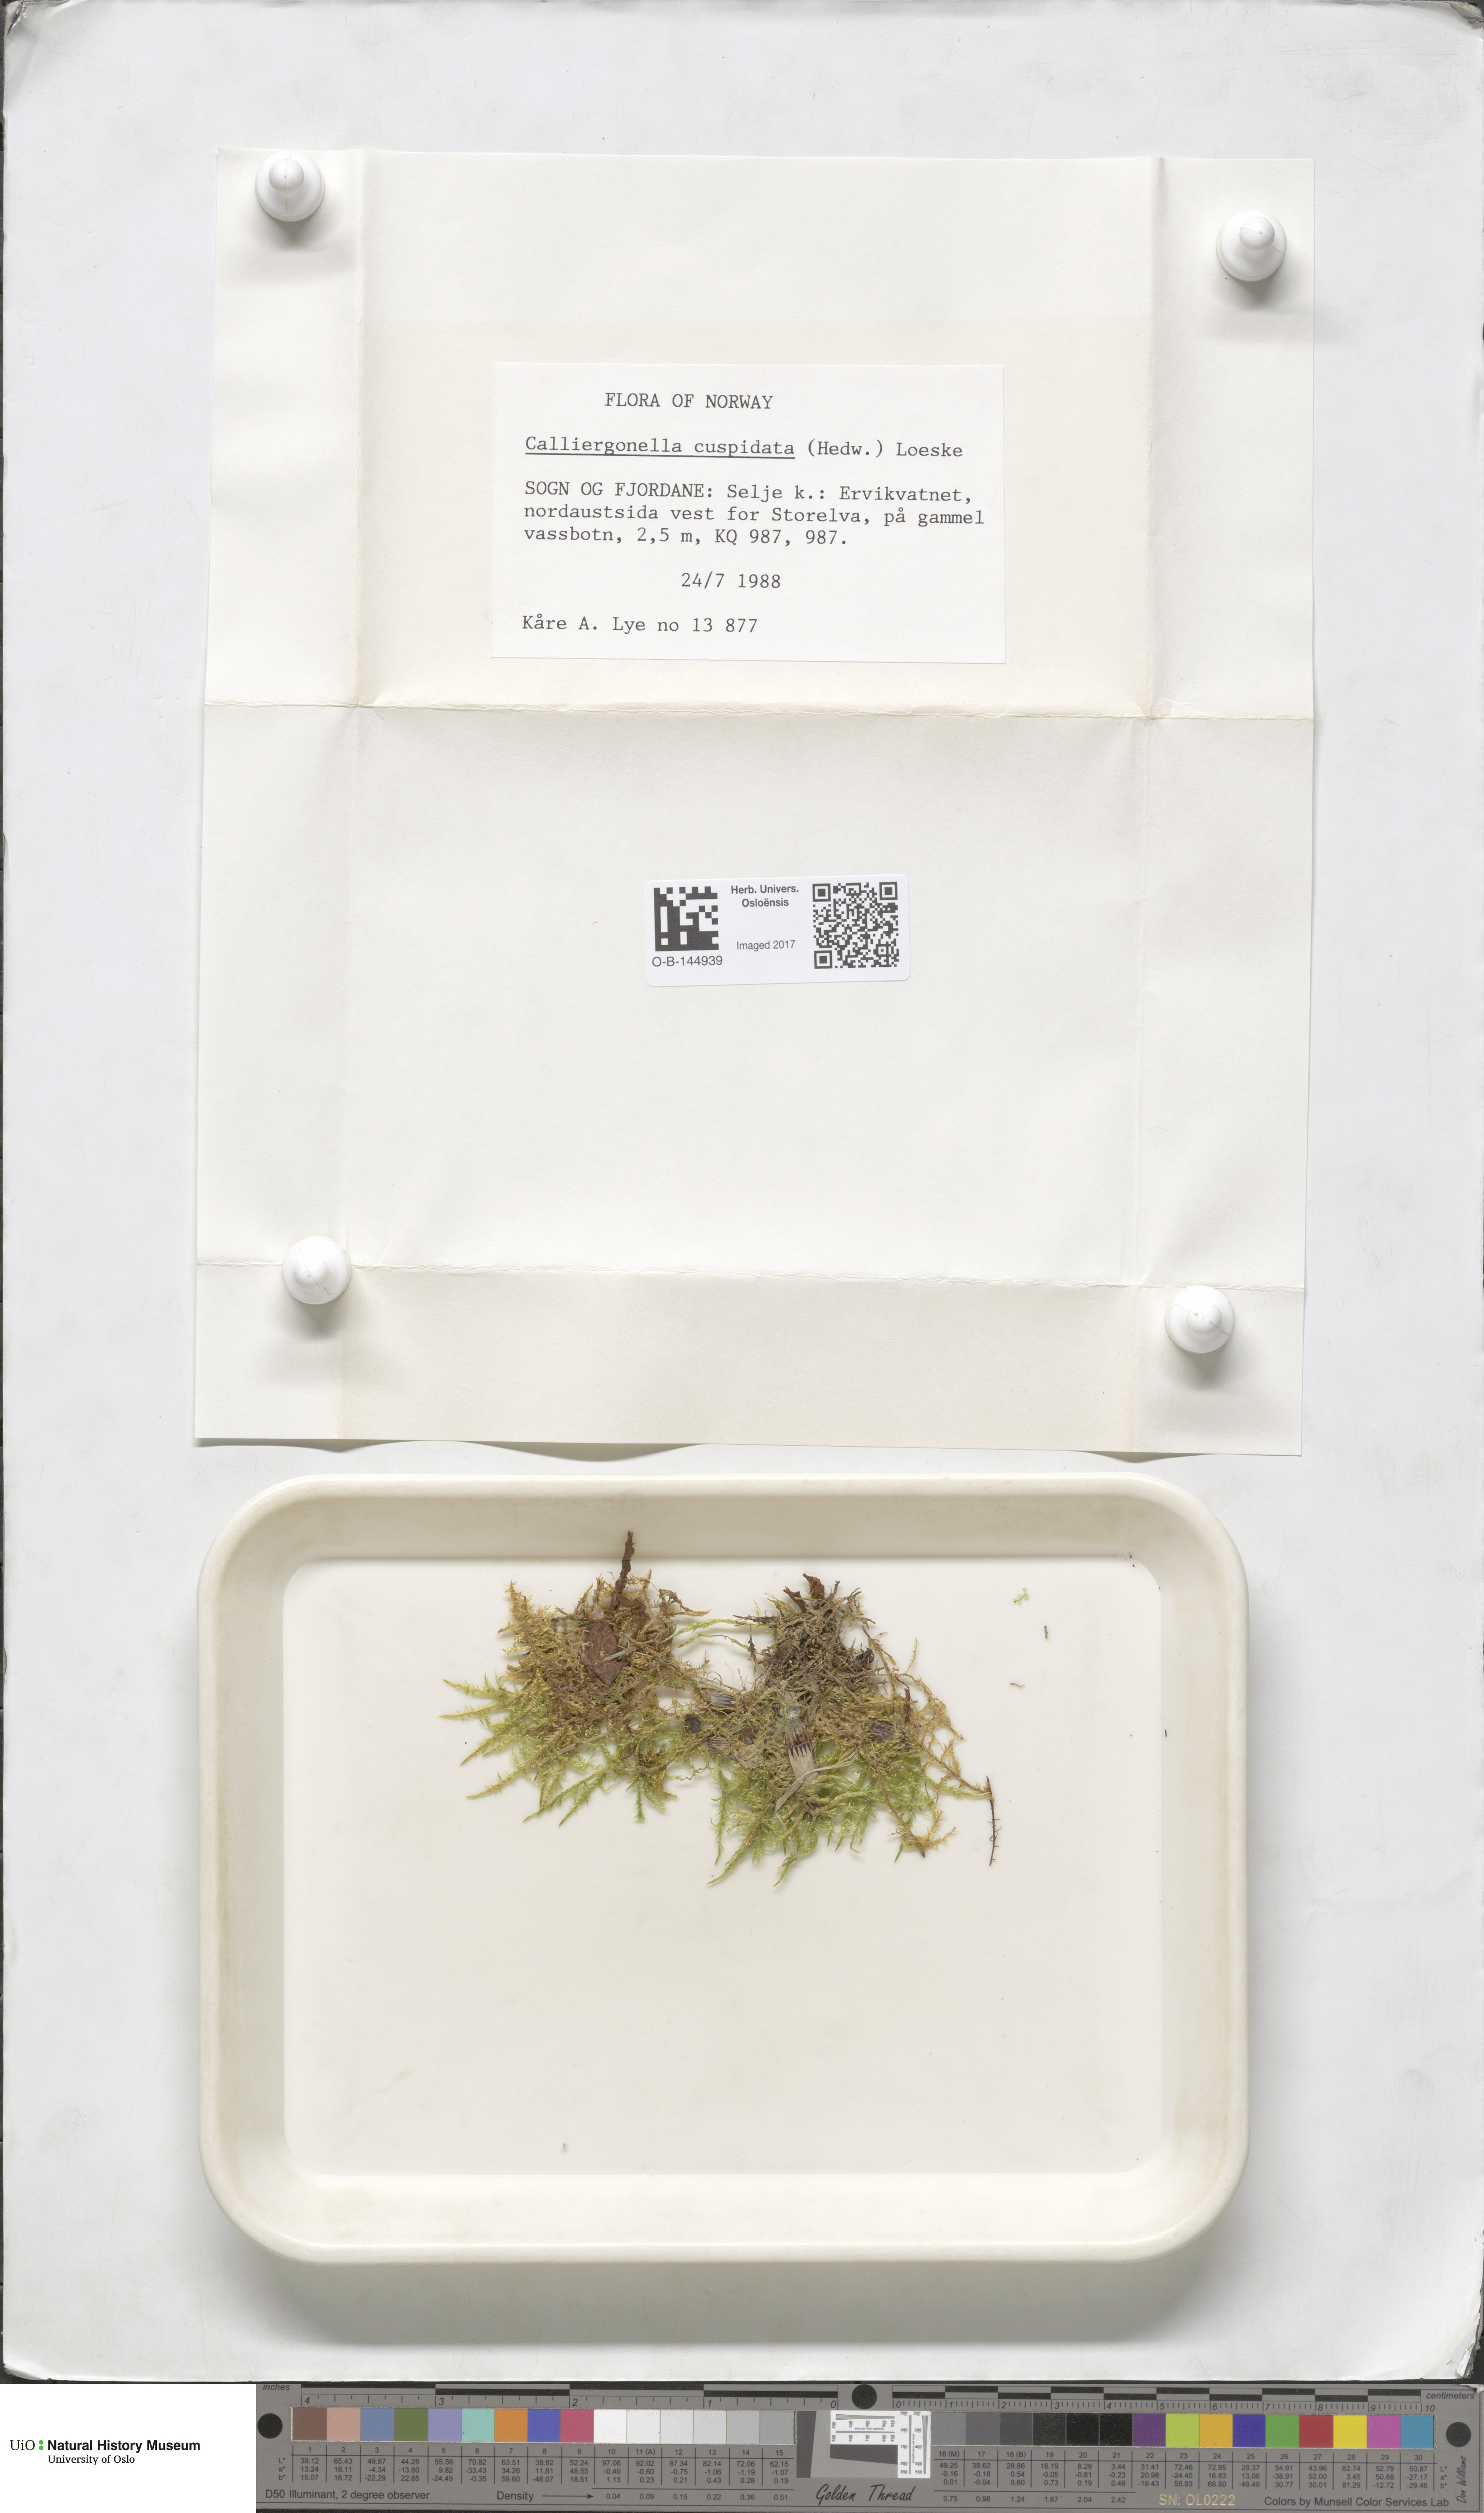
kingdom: Plantae
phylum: Bryophyta
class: Bryopsida
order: Hypnales
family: Pylaisiaceae
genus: Calliergonella
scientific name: Calliergonella cuspidata
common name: Common large wetland moss
